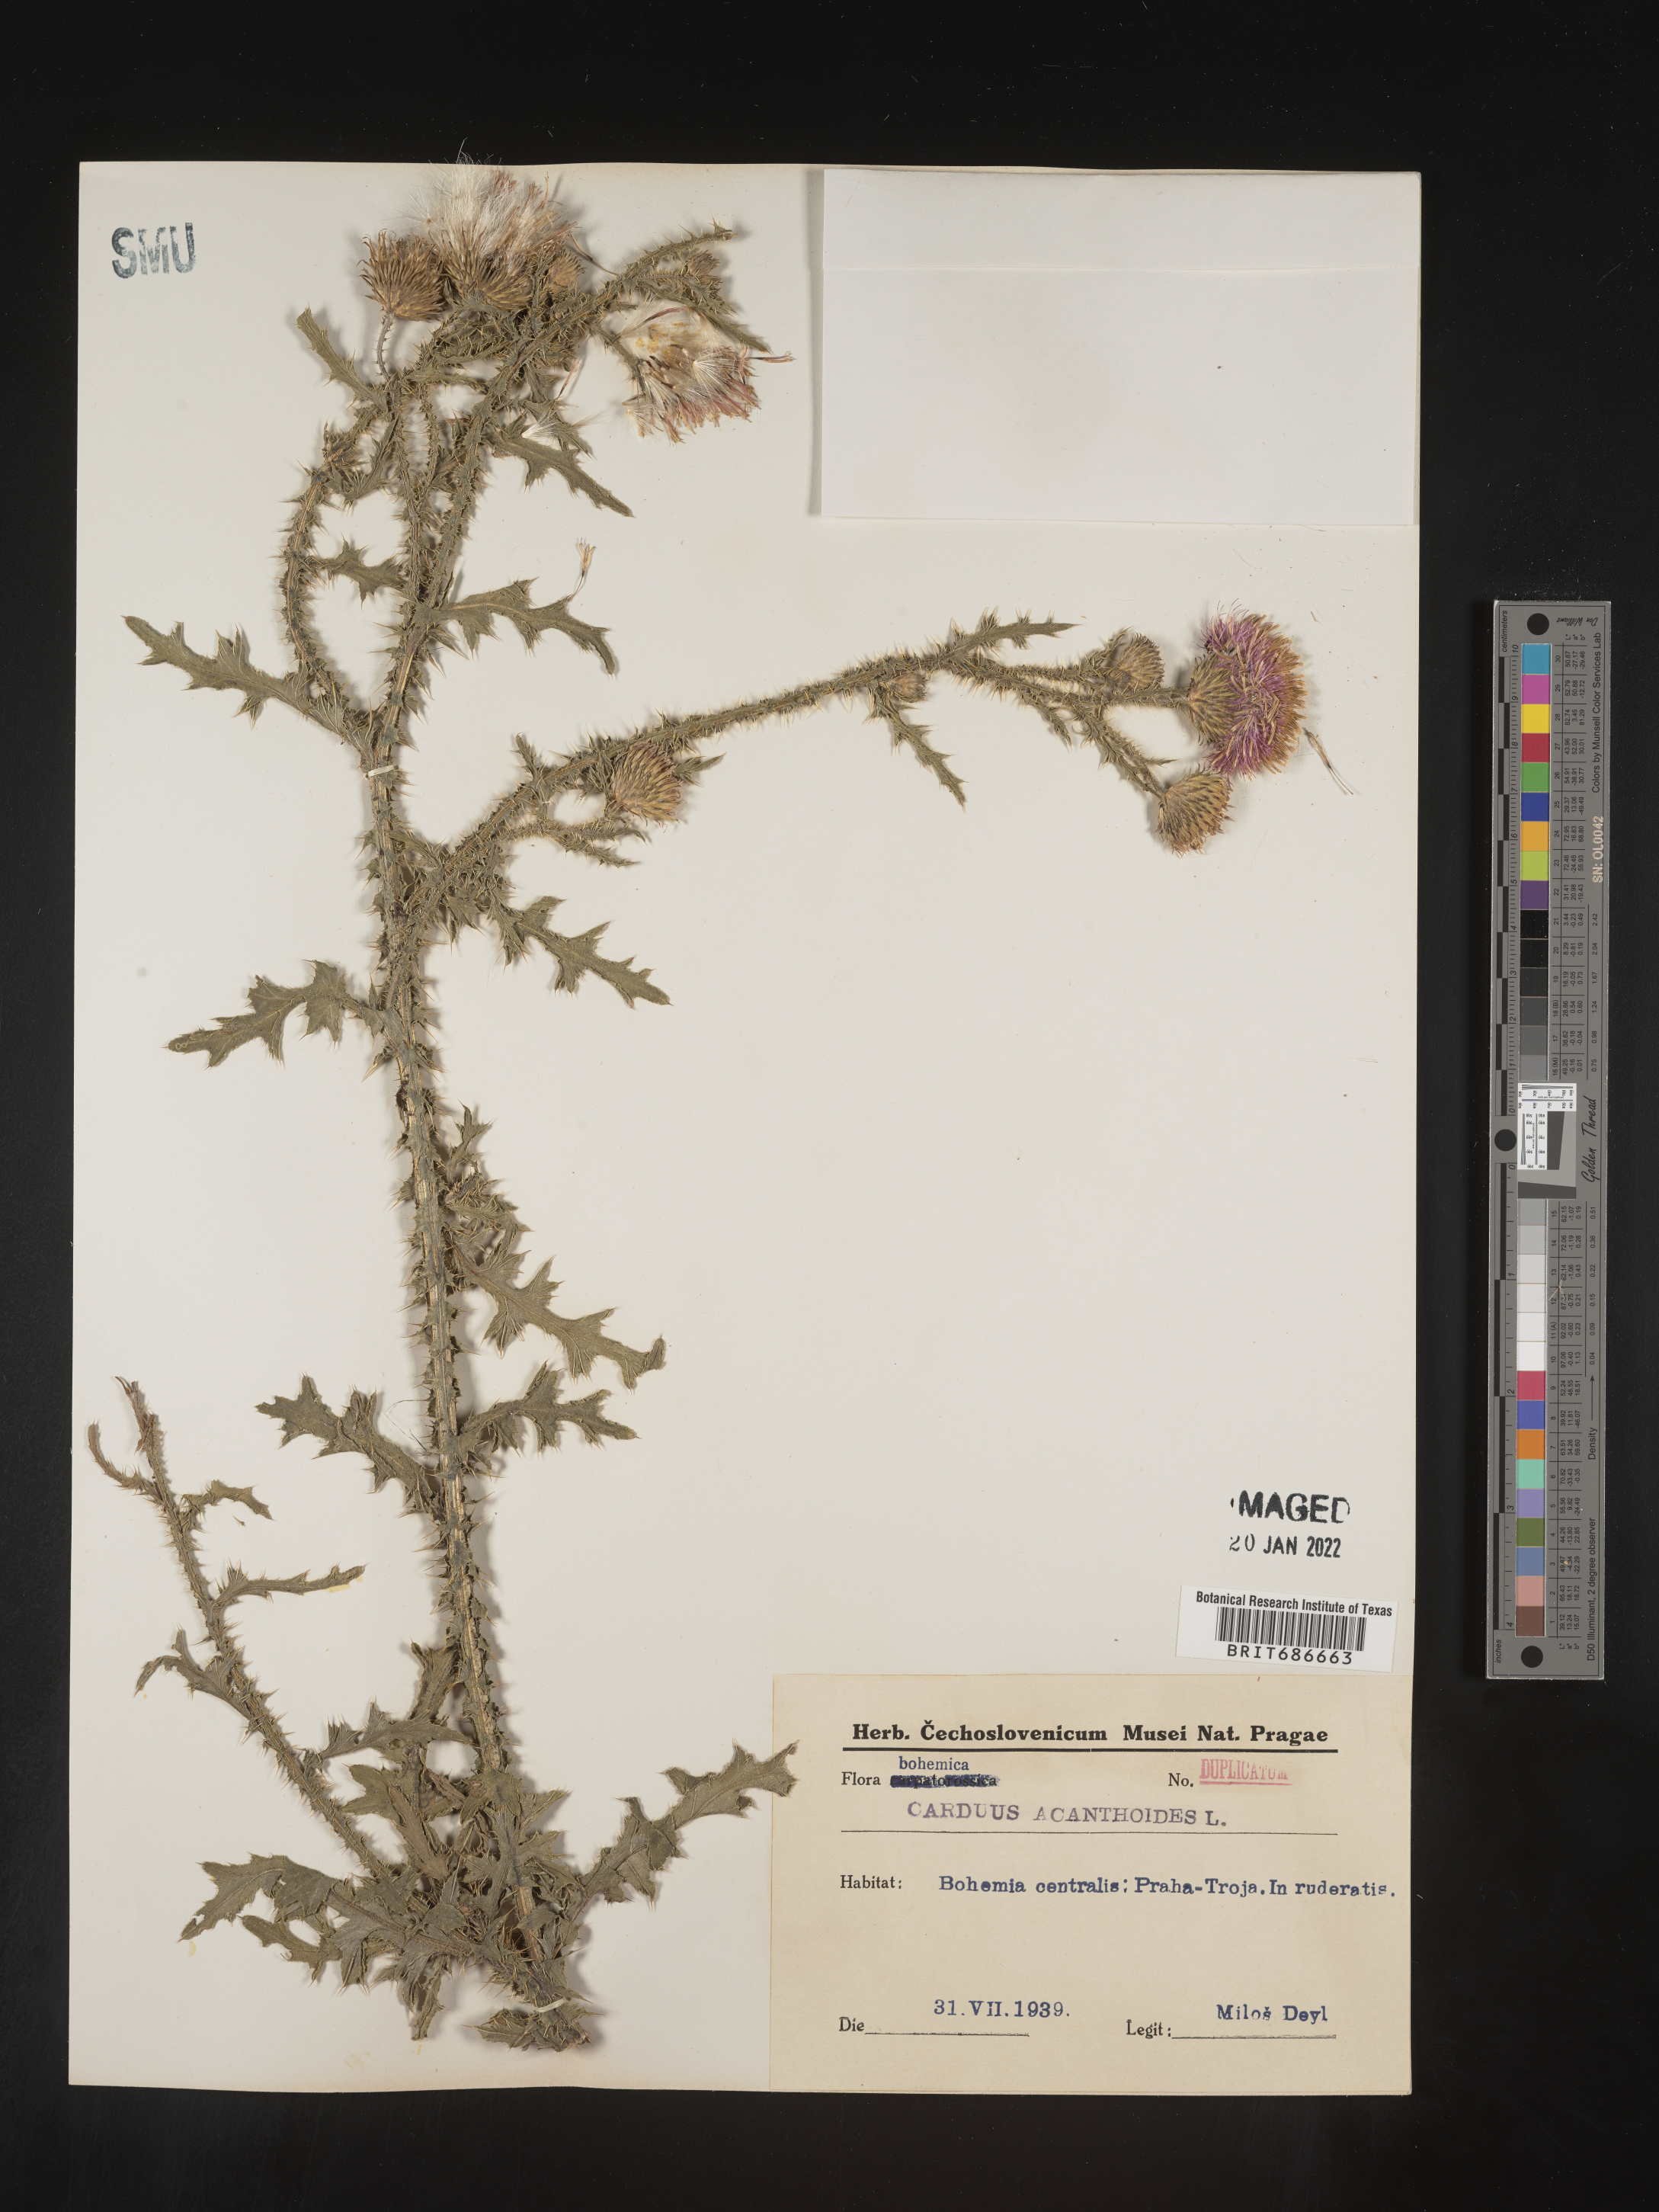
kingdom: Plantae
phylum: Tracheophyta
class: Magnoliopsida
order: Asterales
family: Asteraceae
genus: Carduus
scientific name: Carduus acanthoides
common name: Plumeless thistle
